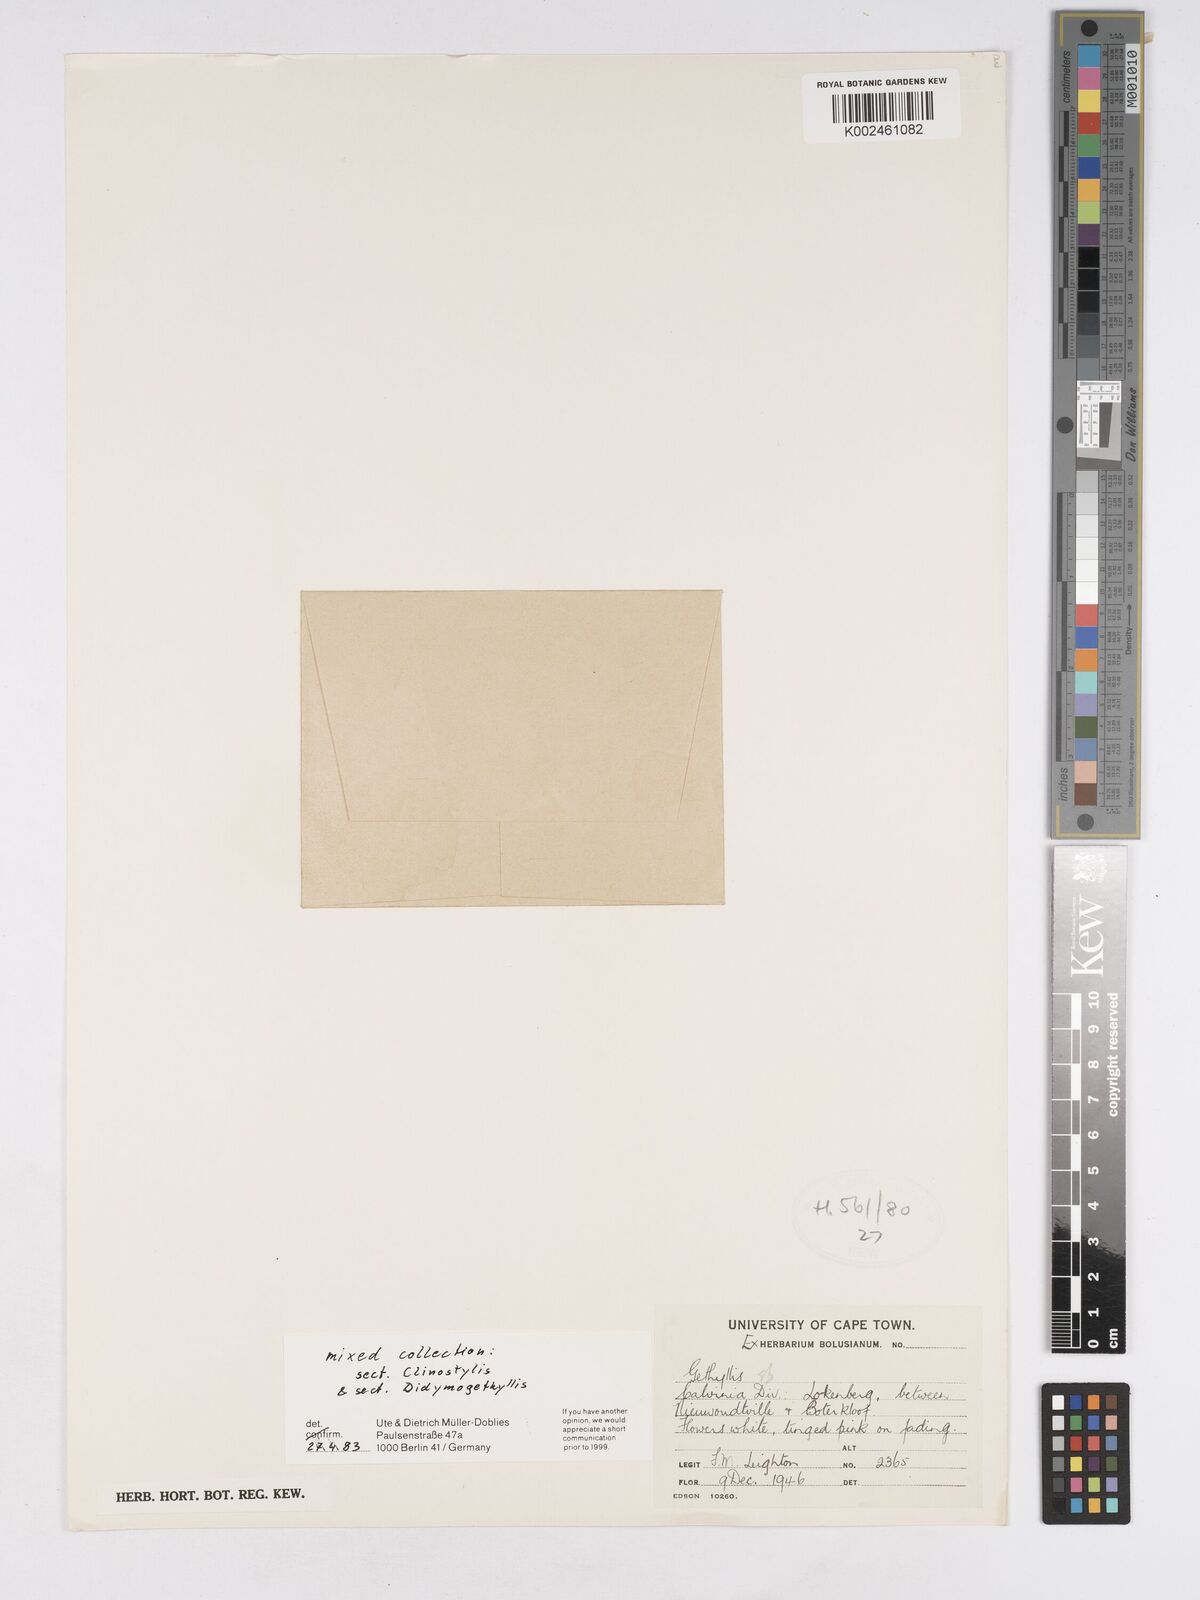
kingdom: Plantae
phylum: Tracheophyta
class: Liliopsida
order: Asparagales
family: Amaryllidaceae
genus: Gethyllis
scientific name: Gethyllis
